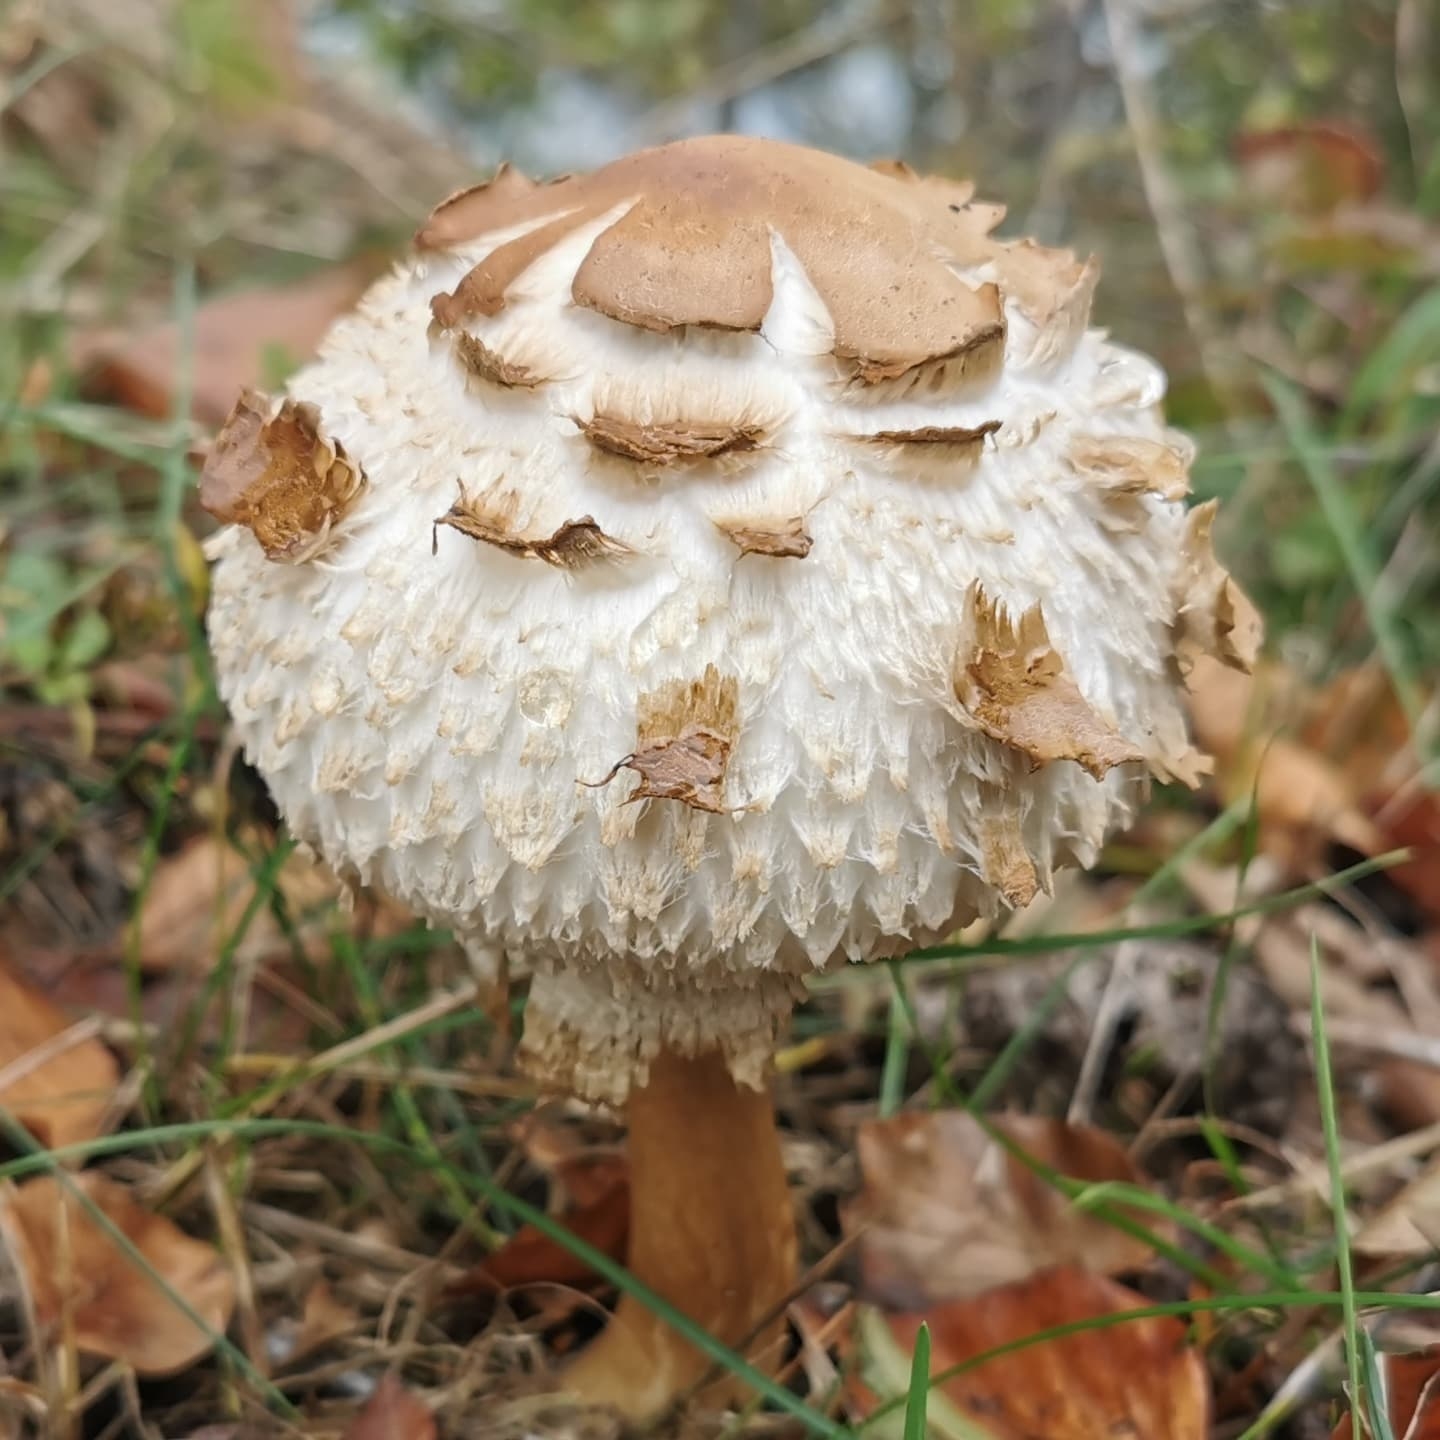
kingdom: Fungi
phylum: Basidiomycota
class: Agaricomycetes
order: Agaricales
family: Agaricaceae
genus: Chlorophyllum
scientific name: Chlorophyllum olivieri
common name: almindelig rabarberhat
